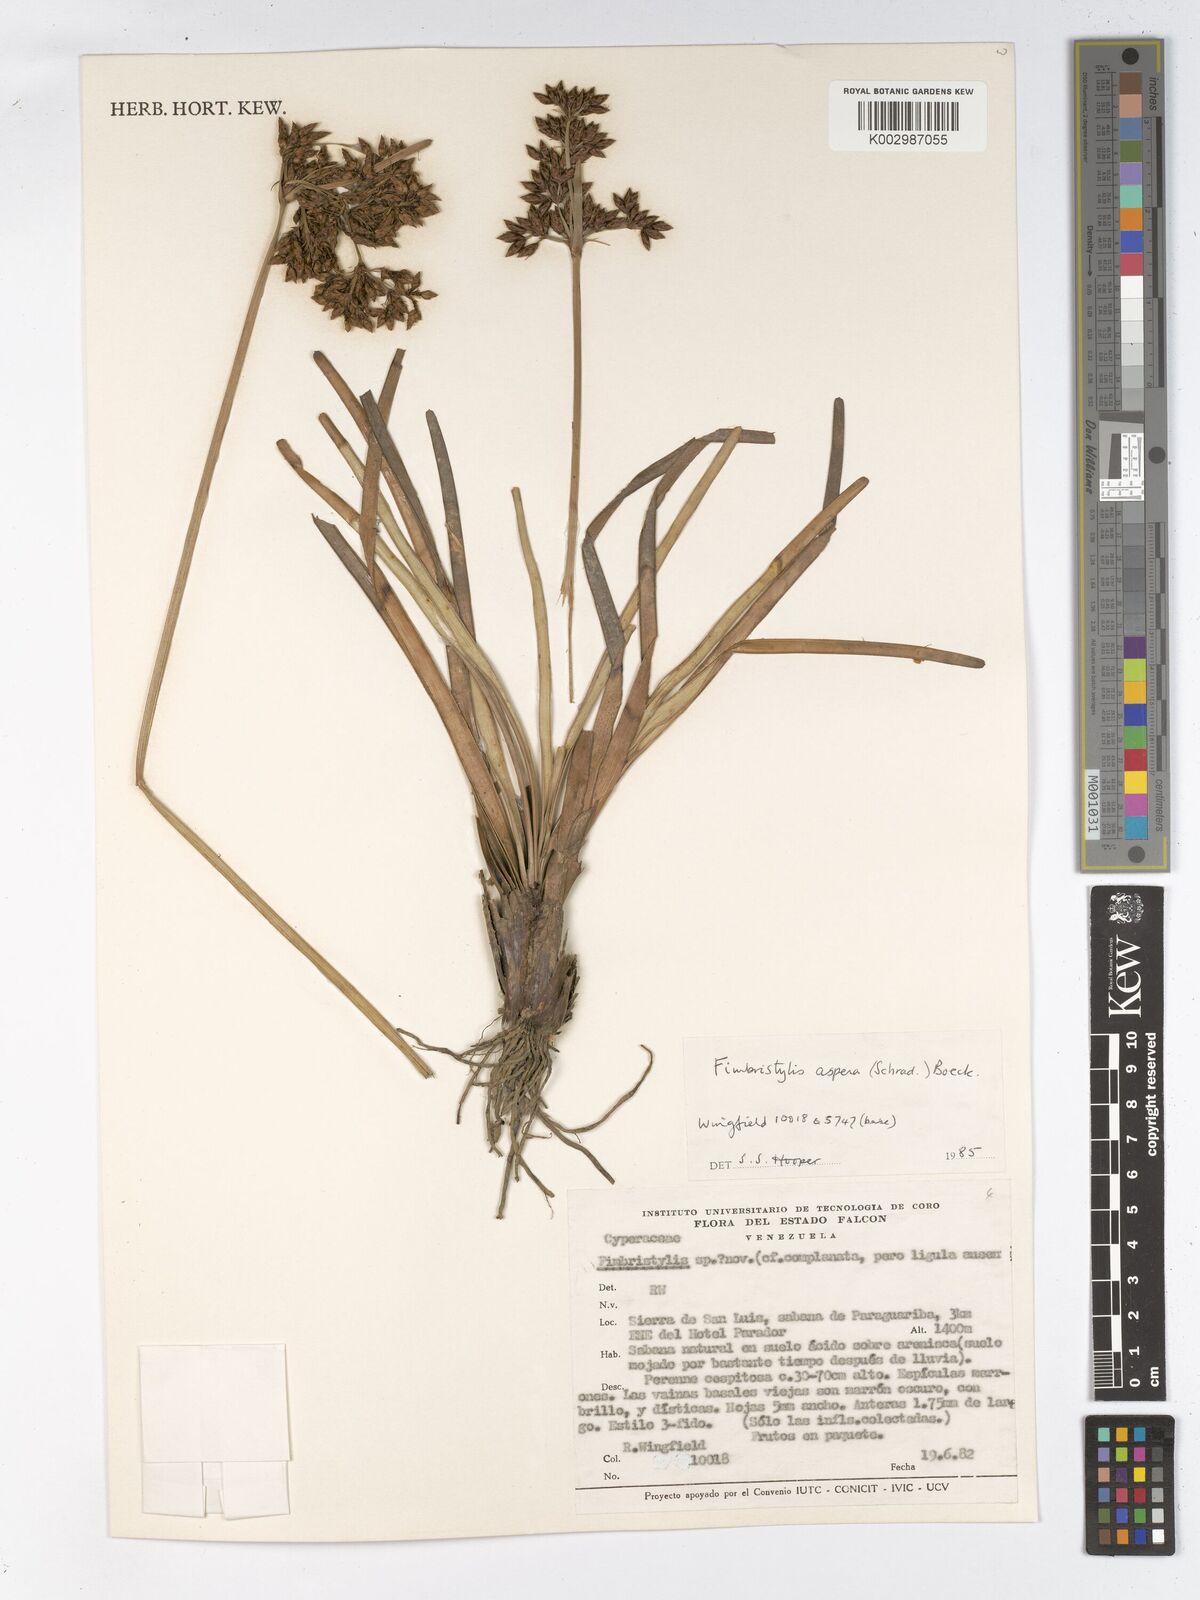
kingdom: Plantae
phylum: Tracheophyta
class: Liliopsida
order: Poales
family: Cyperaceae
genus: Fimbristylis
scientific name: Fimbristylis aspera
